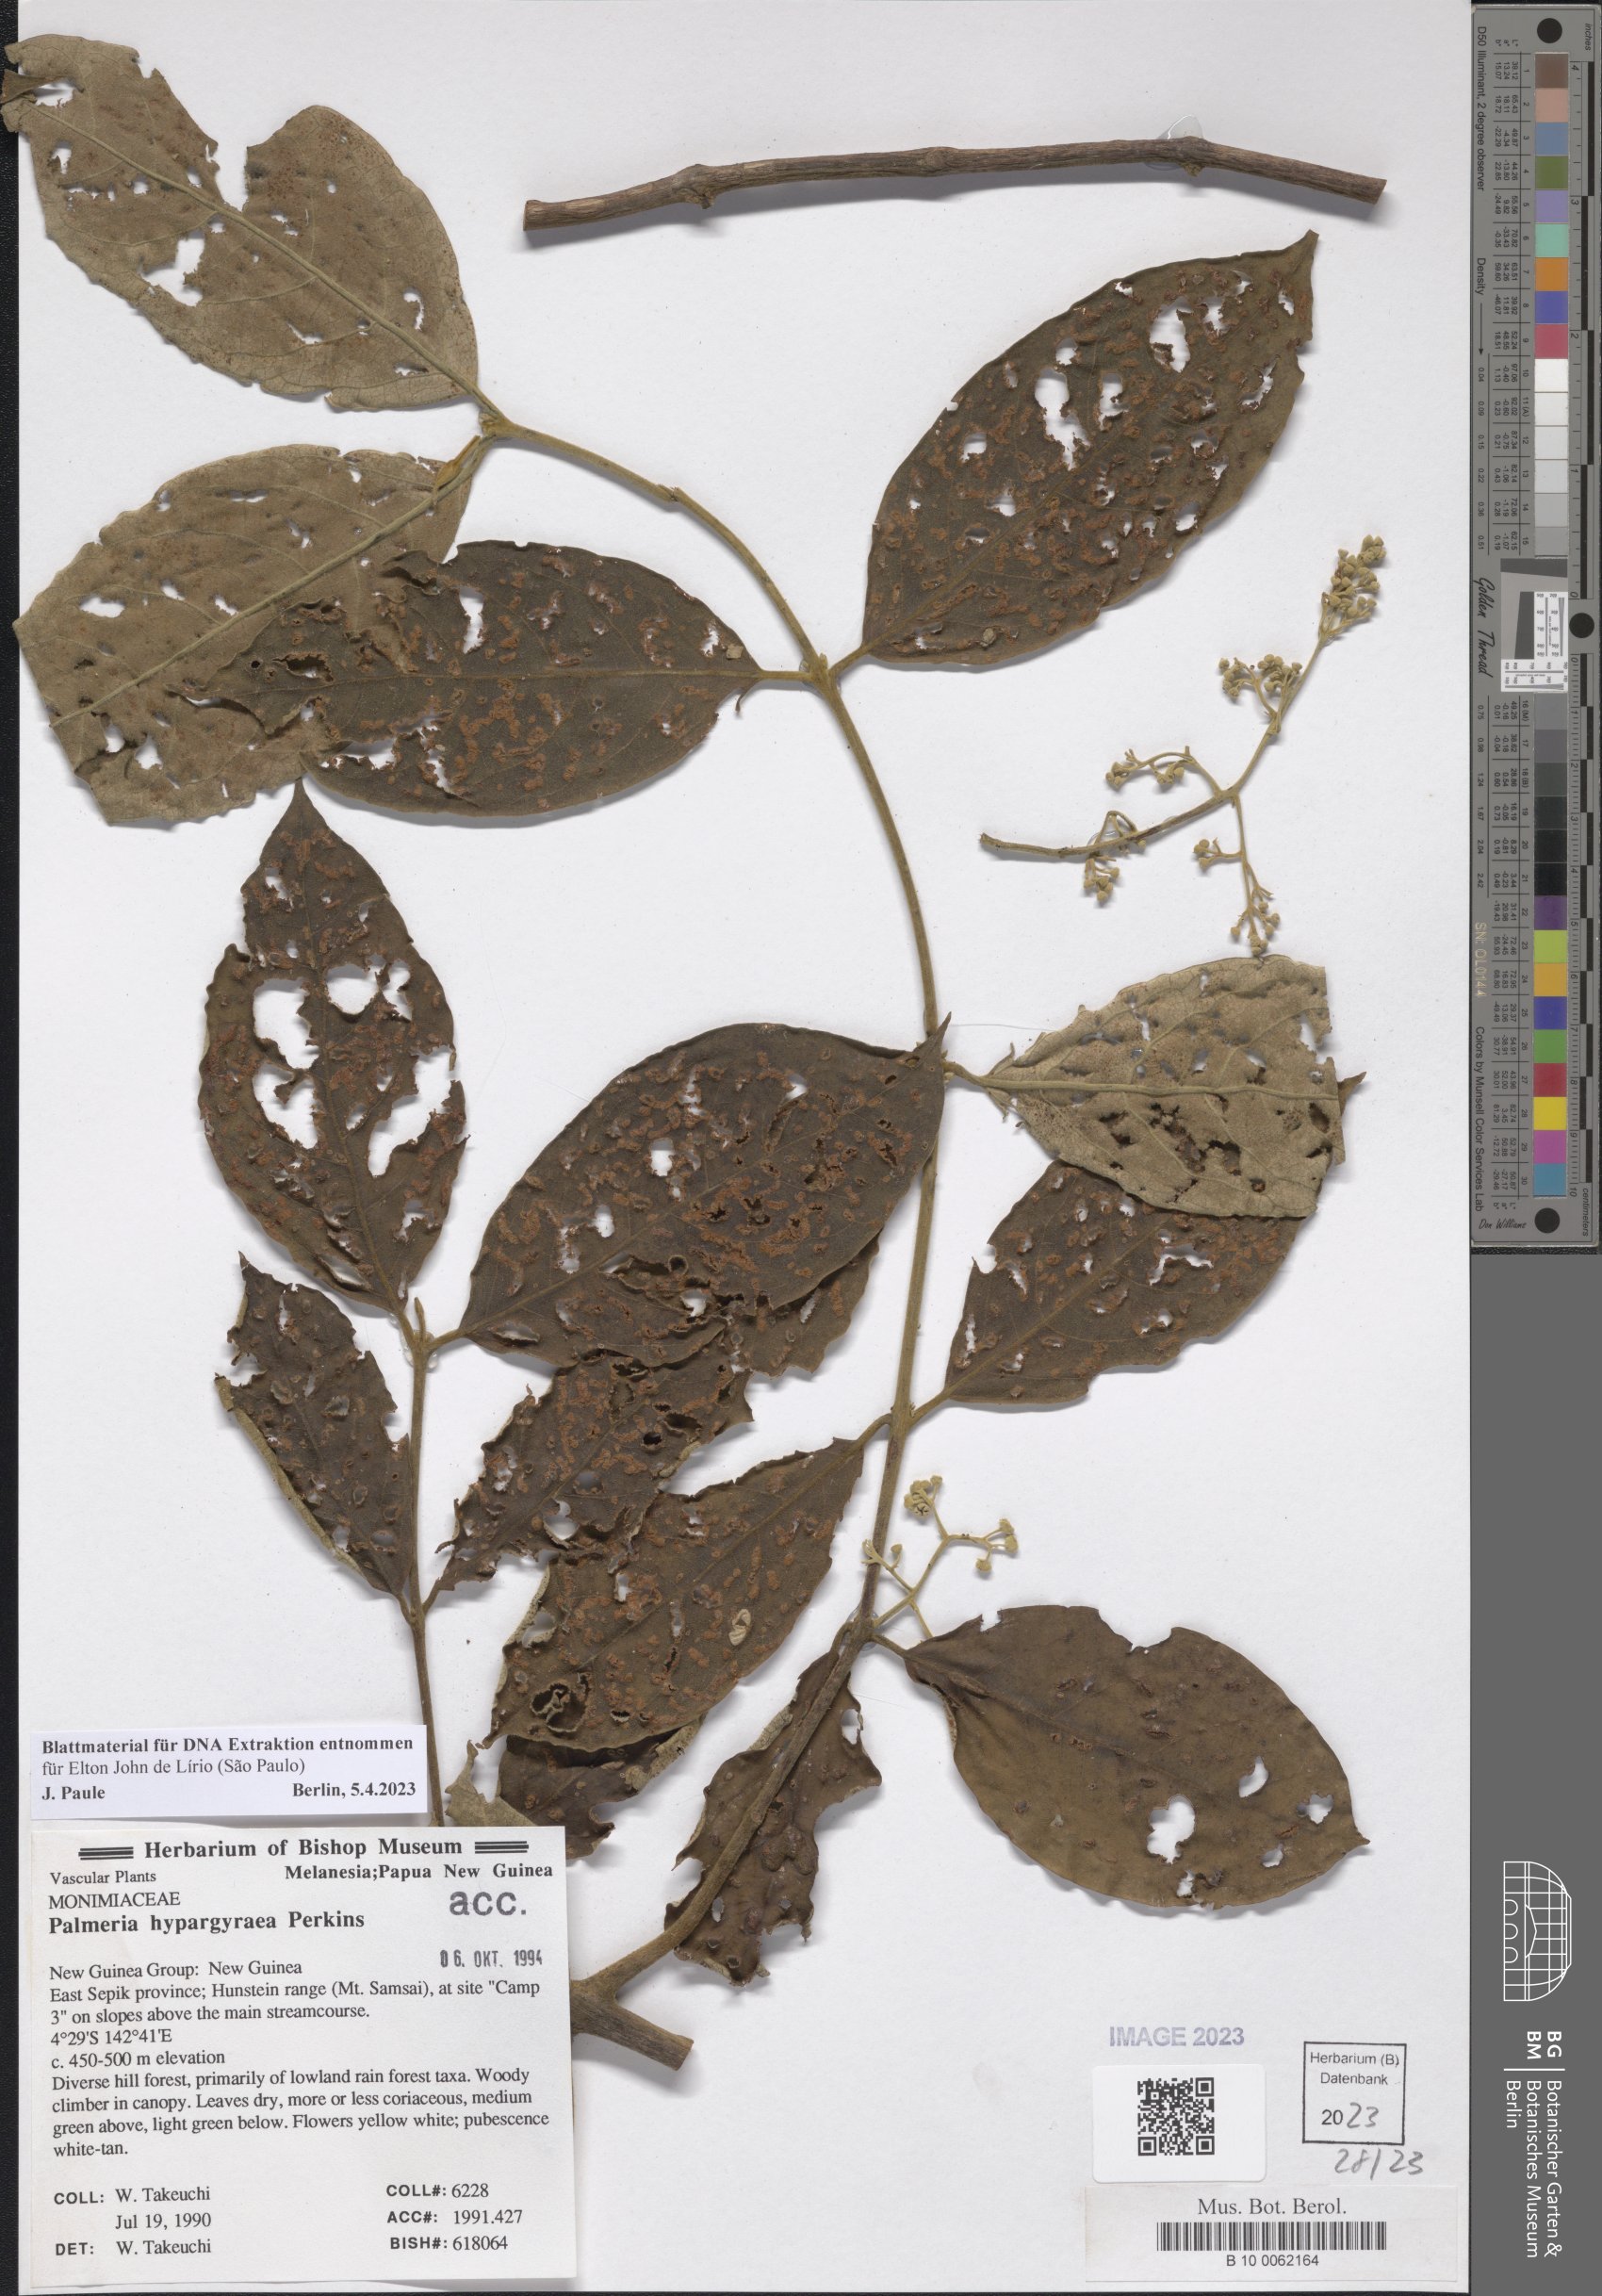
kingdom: Plantae
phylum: Tracheophyta
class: Magnoliopsida
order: Laurales
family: Monimiaceae
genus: Palmeria
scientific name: Palmeria hypargyrea
